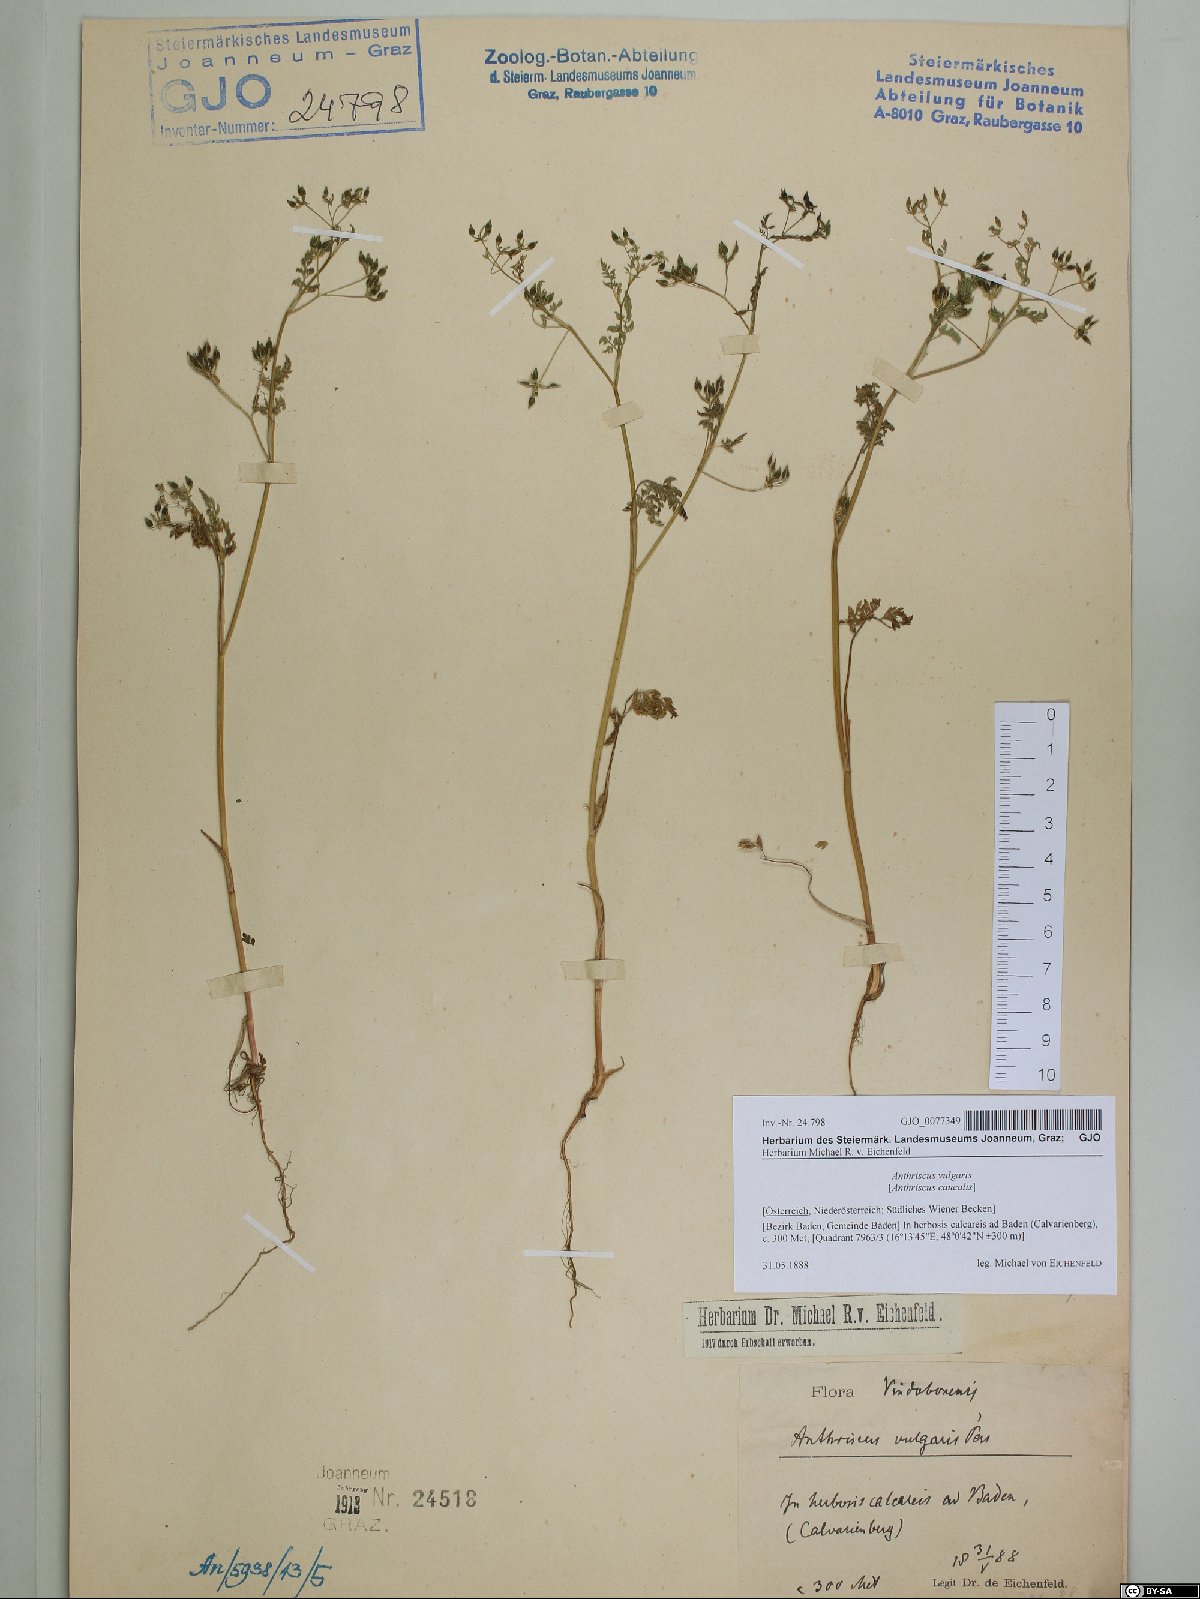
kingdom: Plantae
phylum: Tracheophyta
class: Magnoliopsida
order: Apiales
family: Apiaceae
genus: Anthriscus
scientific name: Anthriscus caucalis
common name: Bur chervil
